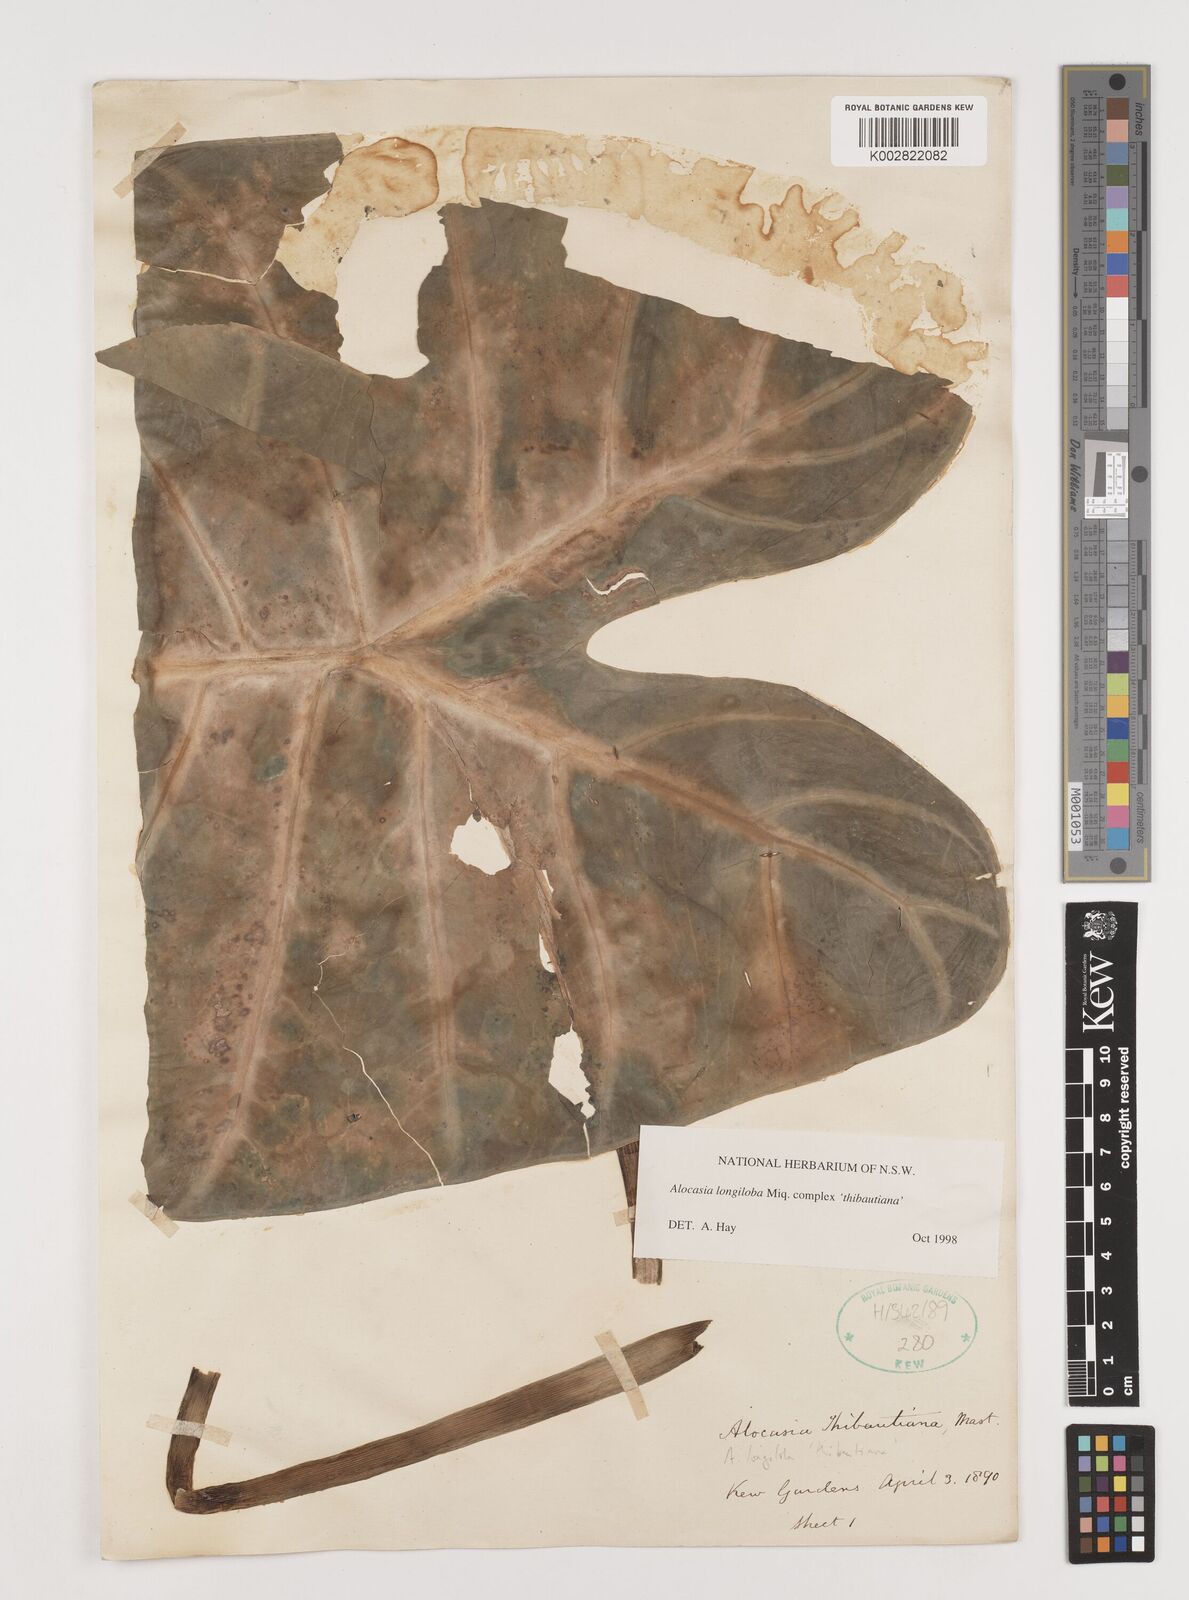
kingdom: Plantae
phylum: Tracheophyta
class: Liliopsida
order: Alismatales
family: Araceae
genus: Alocasia
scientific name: Alocasia longiloba
